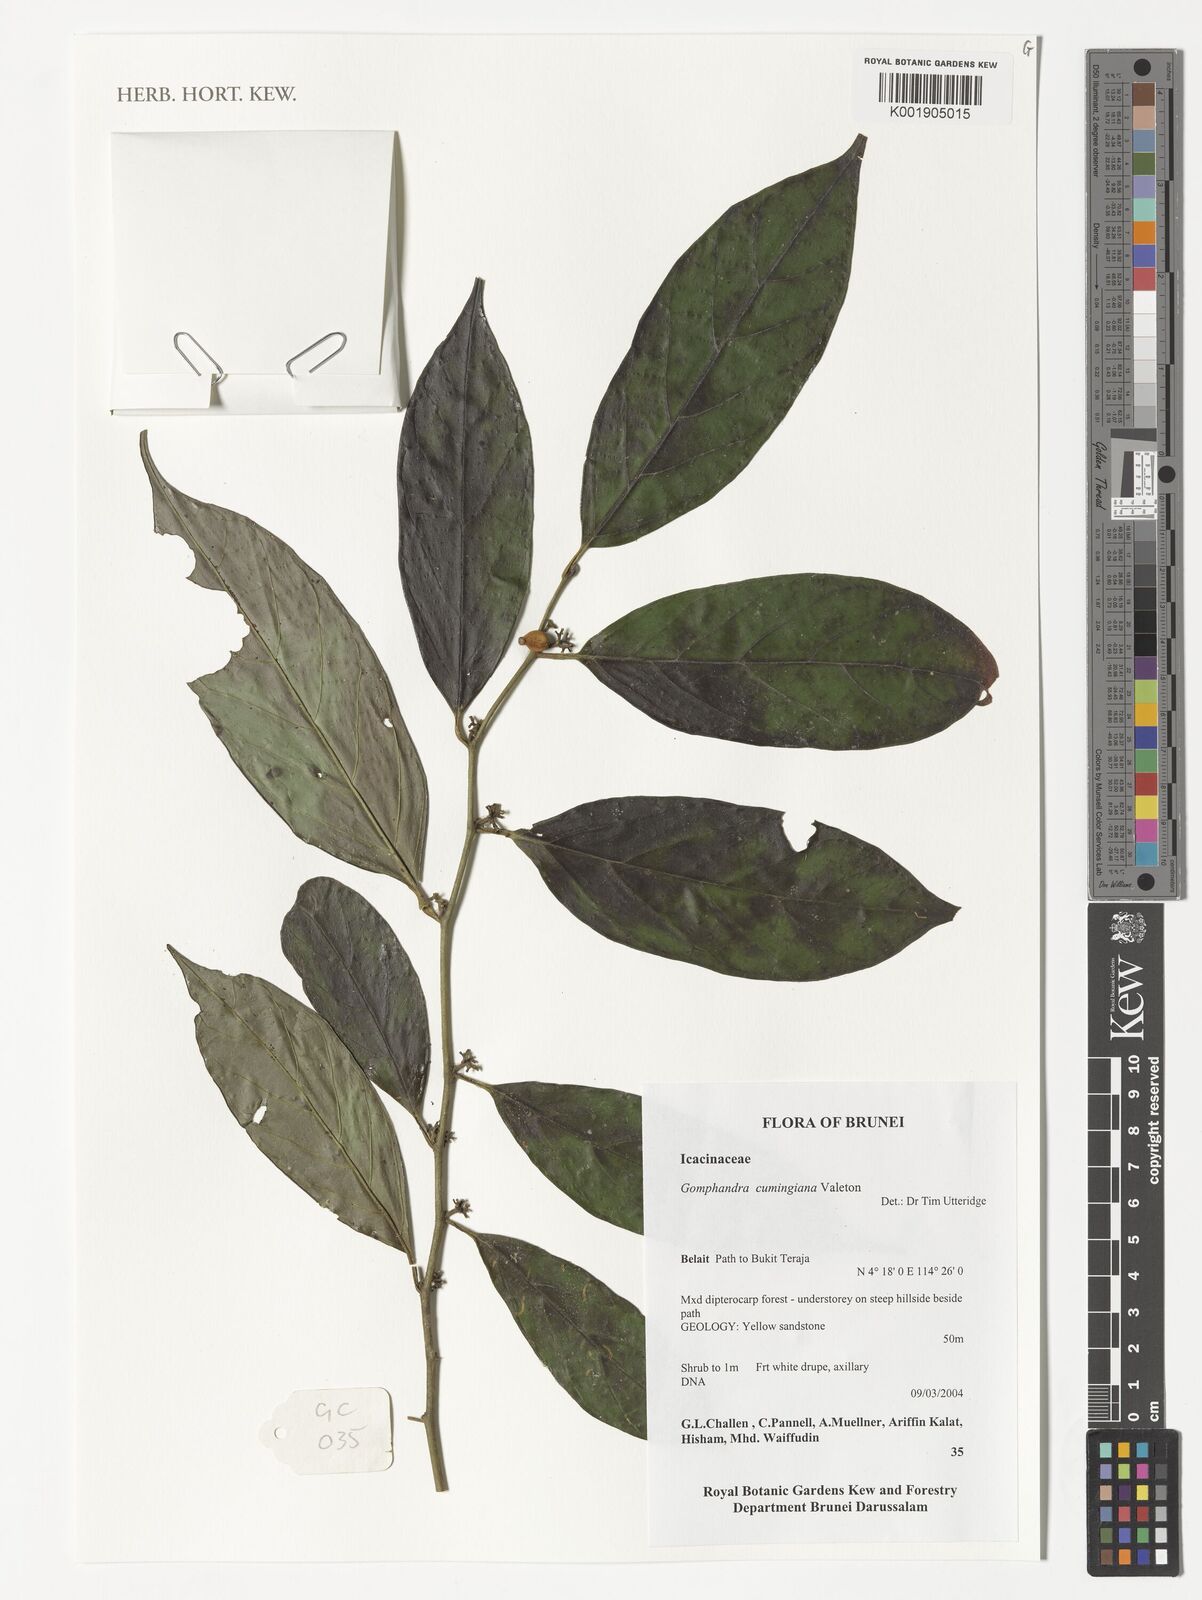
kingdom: Plantae
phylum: Tracheophyta
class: Magnoliopsida
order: Cardiopteridales
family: Stemonuraceae
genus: Gomphandra
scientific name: Gomphandra cumingiana
